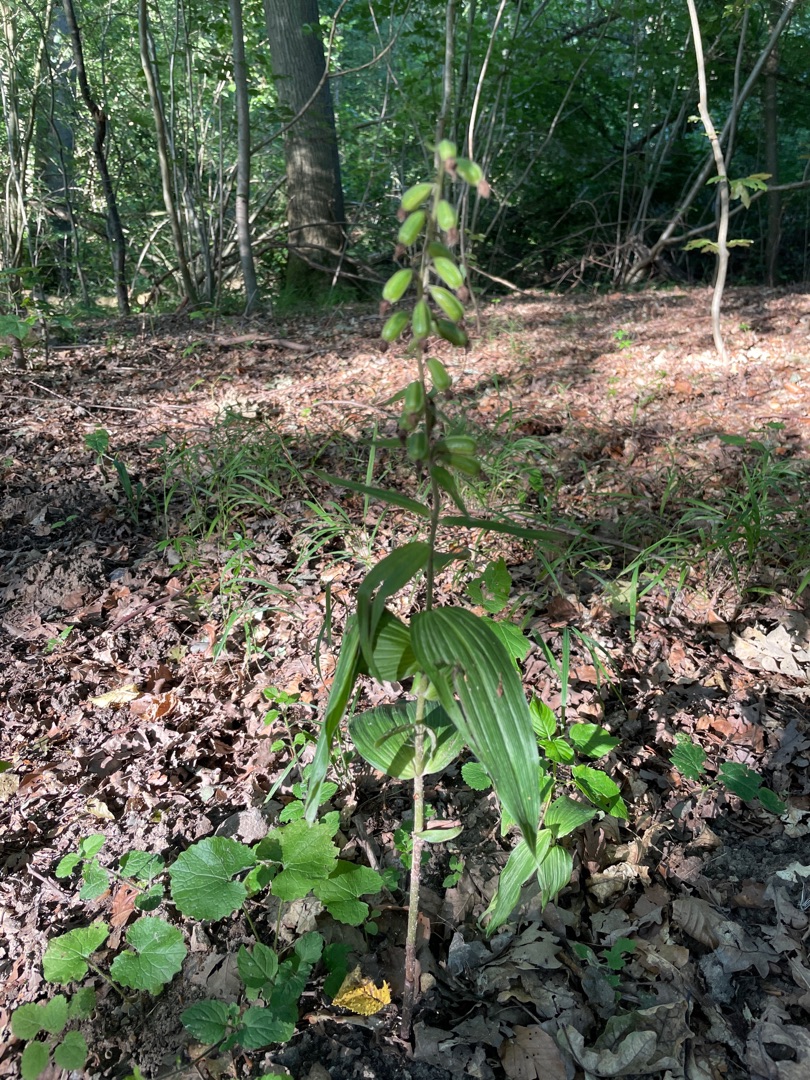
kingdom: Plantae
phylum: Tracheophyta
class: Liliopsida
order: Asparagales
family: Orchidaceae
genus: Epipactis
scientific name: Epipactis helleborine
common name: Skov-hullæbe
